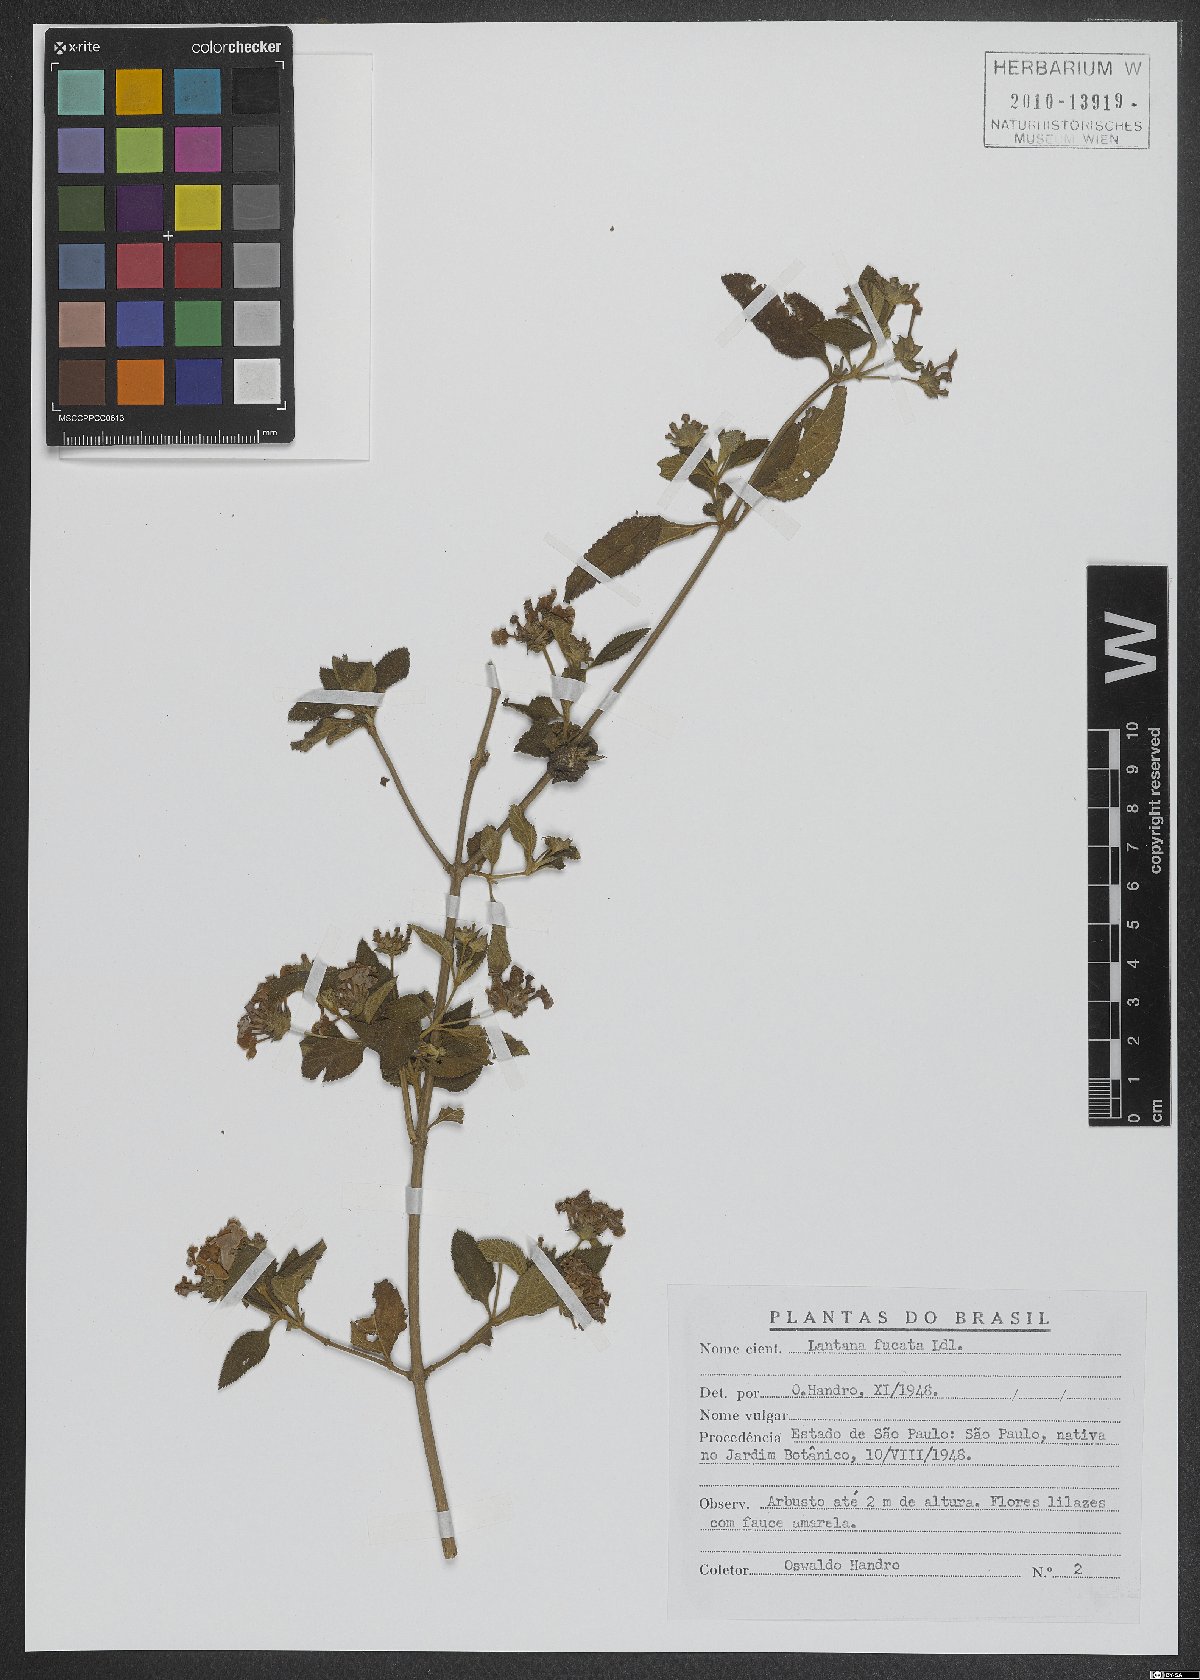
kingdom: Plantae
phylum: Tracheophyta
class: Magnoliopsida
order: Lamiales
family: Verbenaceae
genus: Lantana
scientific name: Lantana fucata
